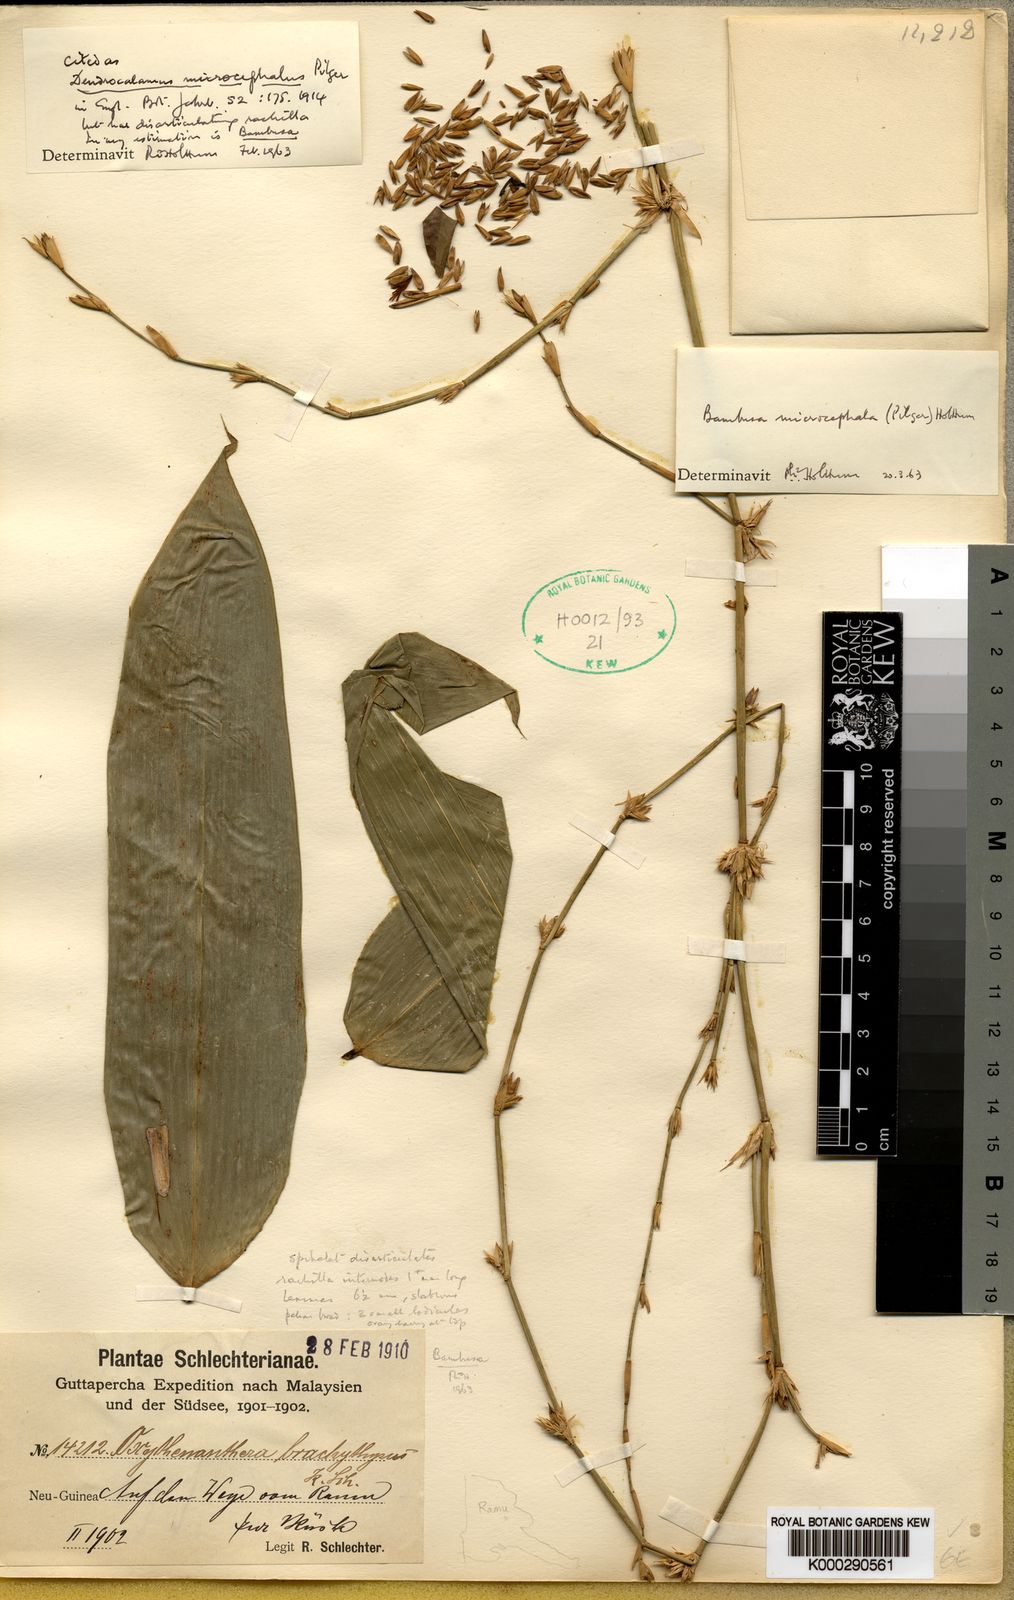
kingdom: Plantae
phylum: Tracheophyta
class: Liliopsida
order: Poales
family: Poaceae
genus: Fimbribambusa
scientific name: Fimbribambusa microcephala
